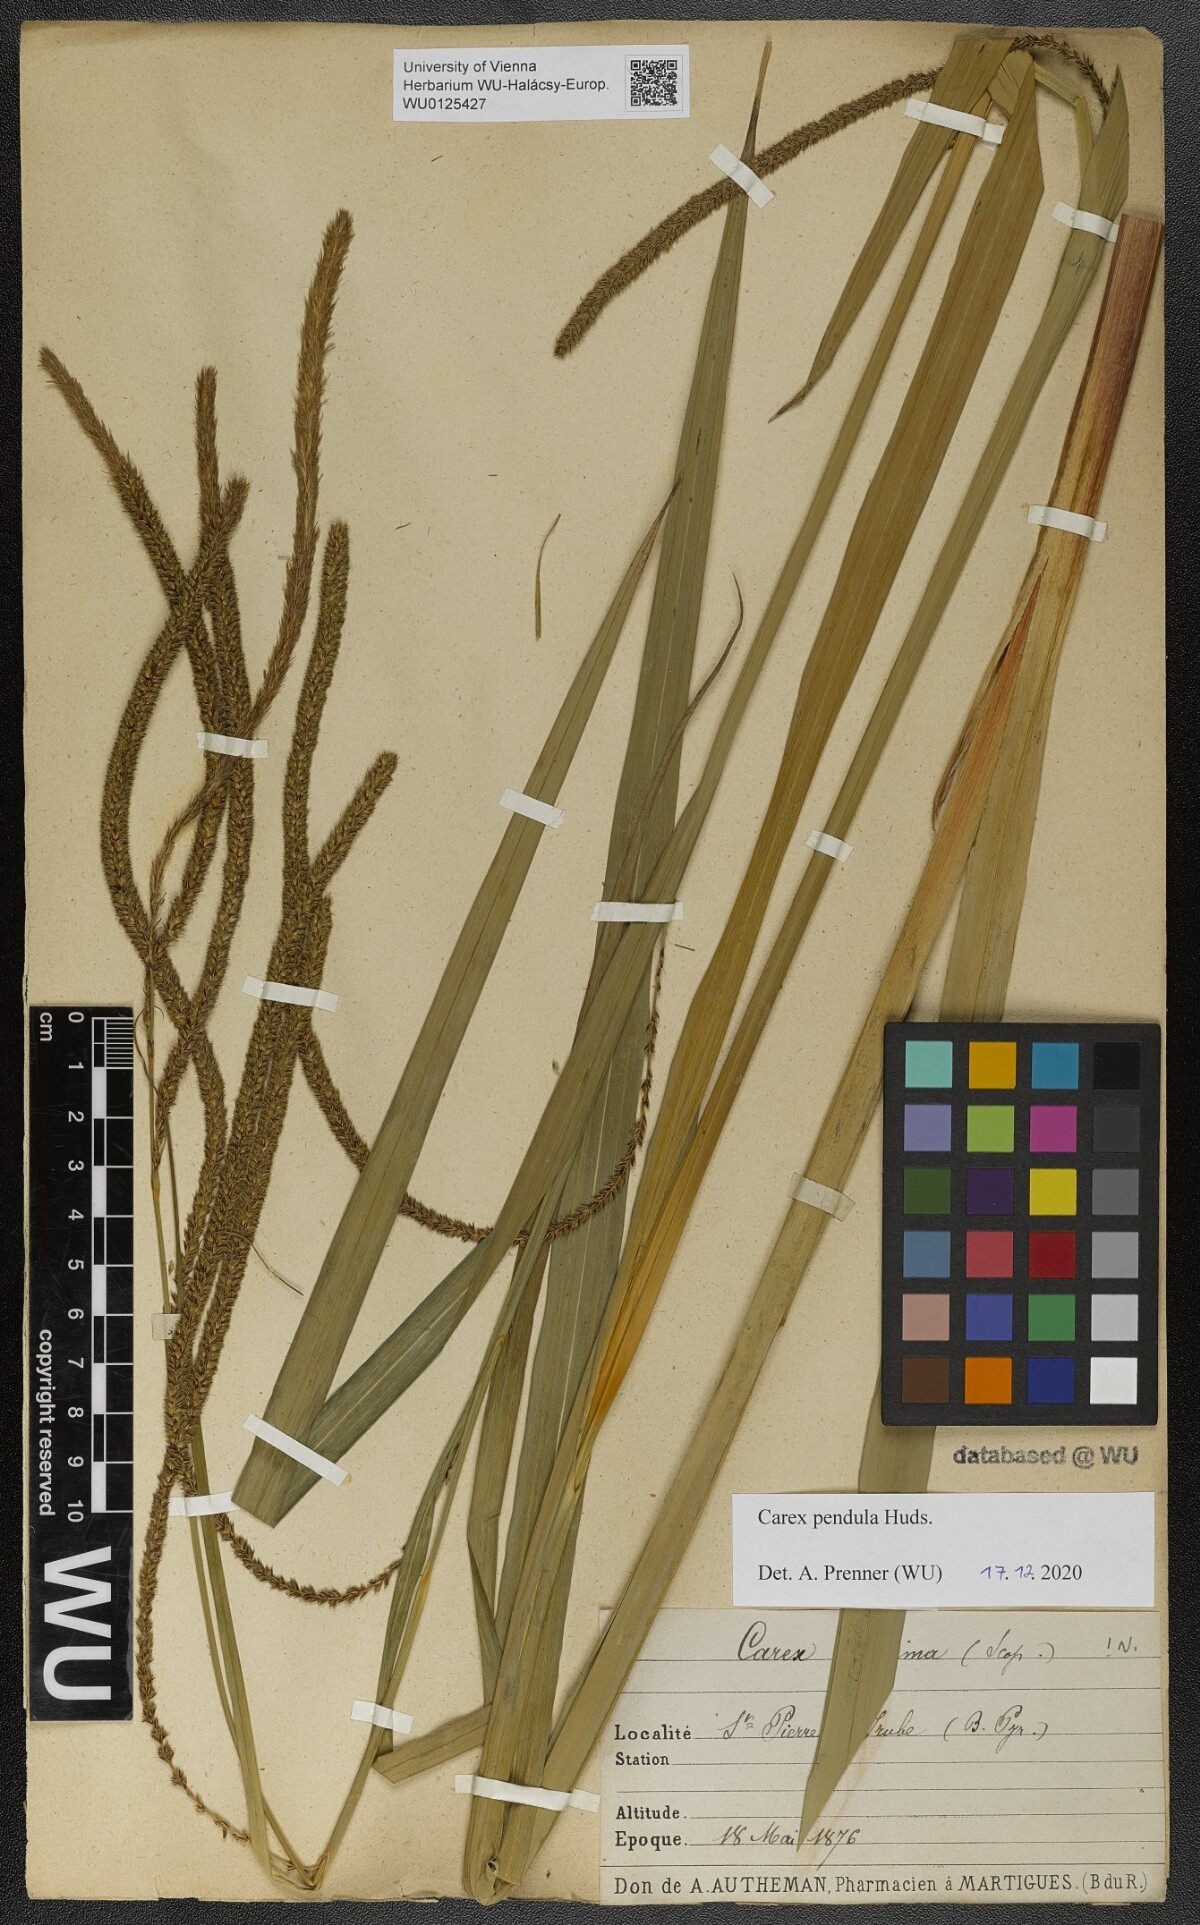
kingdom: Plantae
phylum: Tracheophyta
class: Liliopsida
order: Poales
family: Cyperaceae
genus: Carex
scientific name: Carex pendula
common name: Pendulous sedge
